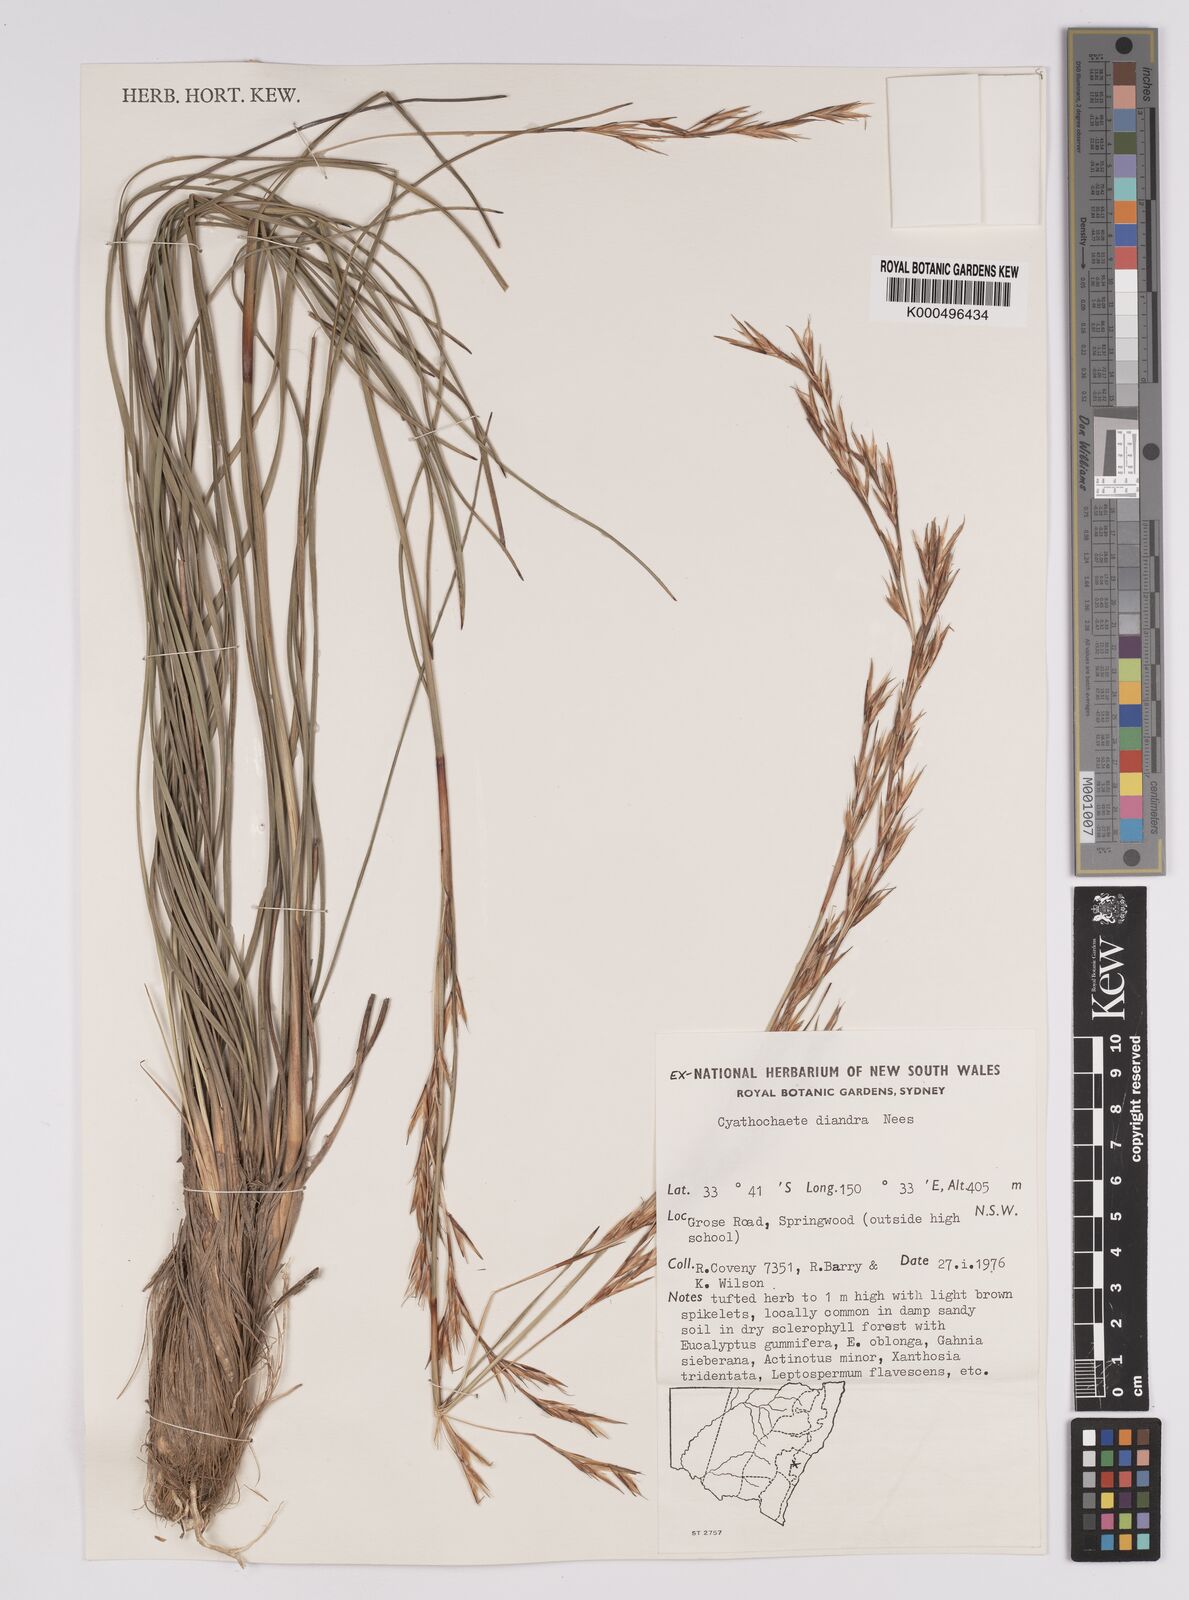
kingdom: Plantae
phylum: Tracheophyta
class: Liliopsida
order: Poales
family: Cyperaceae
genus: Cyathochaeta
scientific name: Cyathochaeta diandra
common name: Sheath rush
